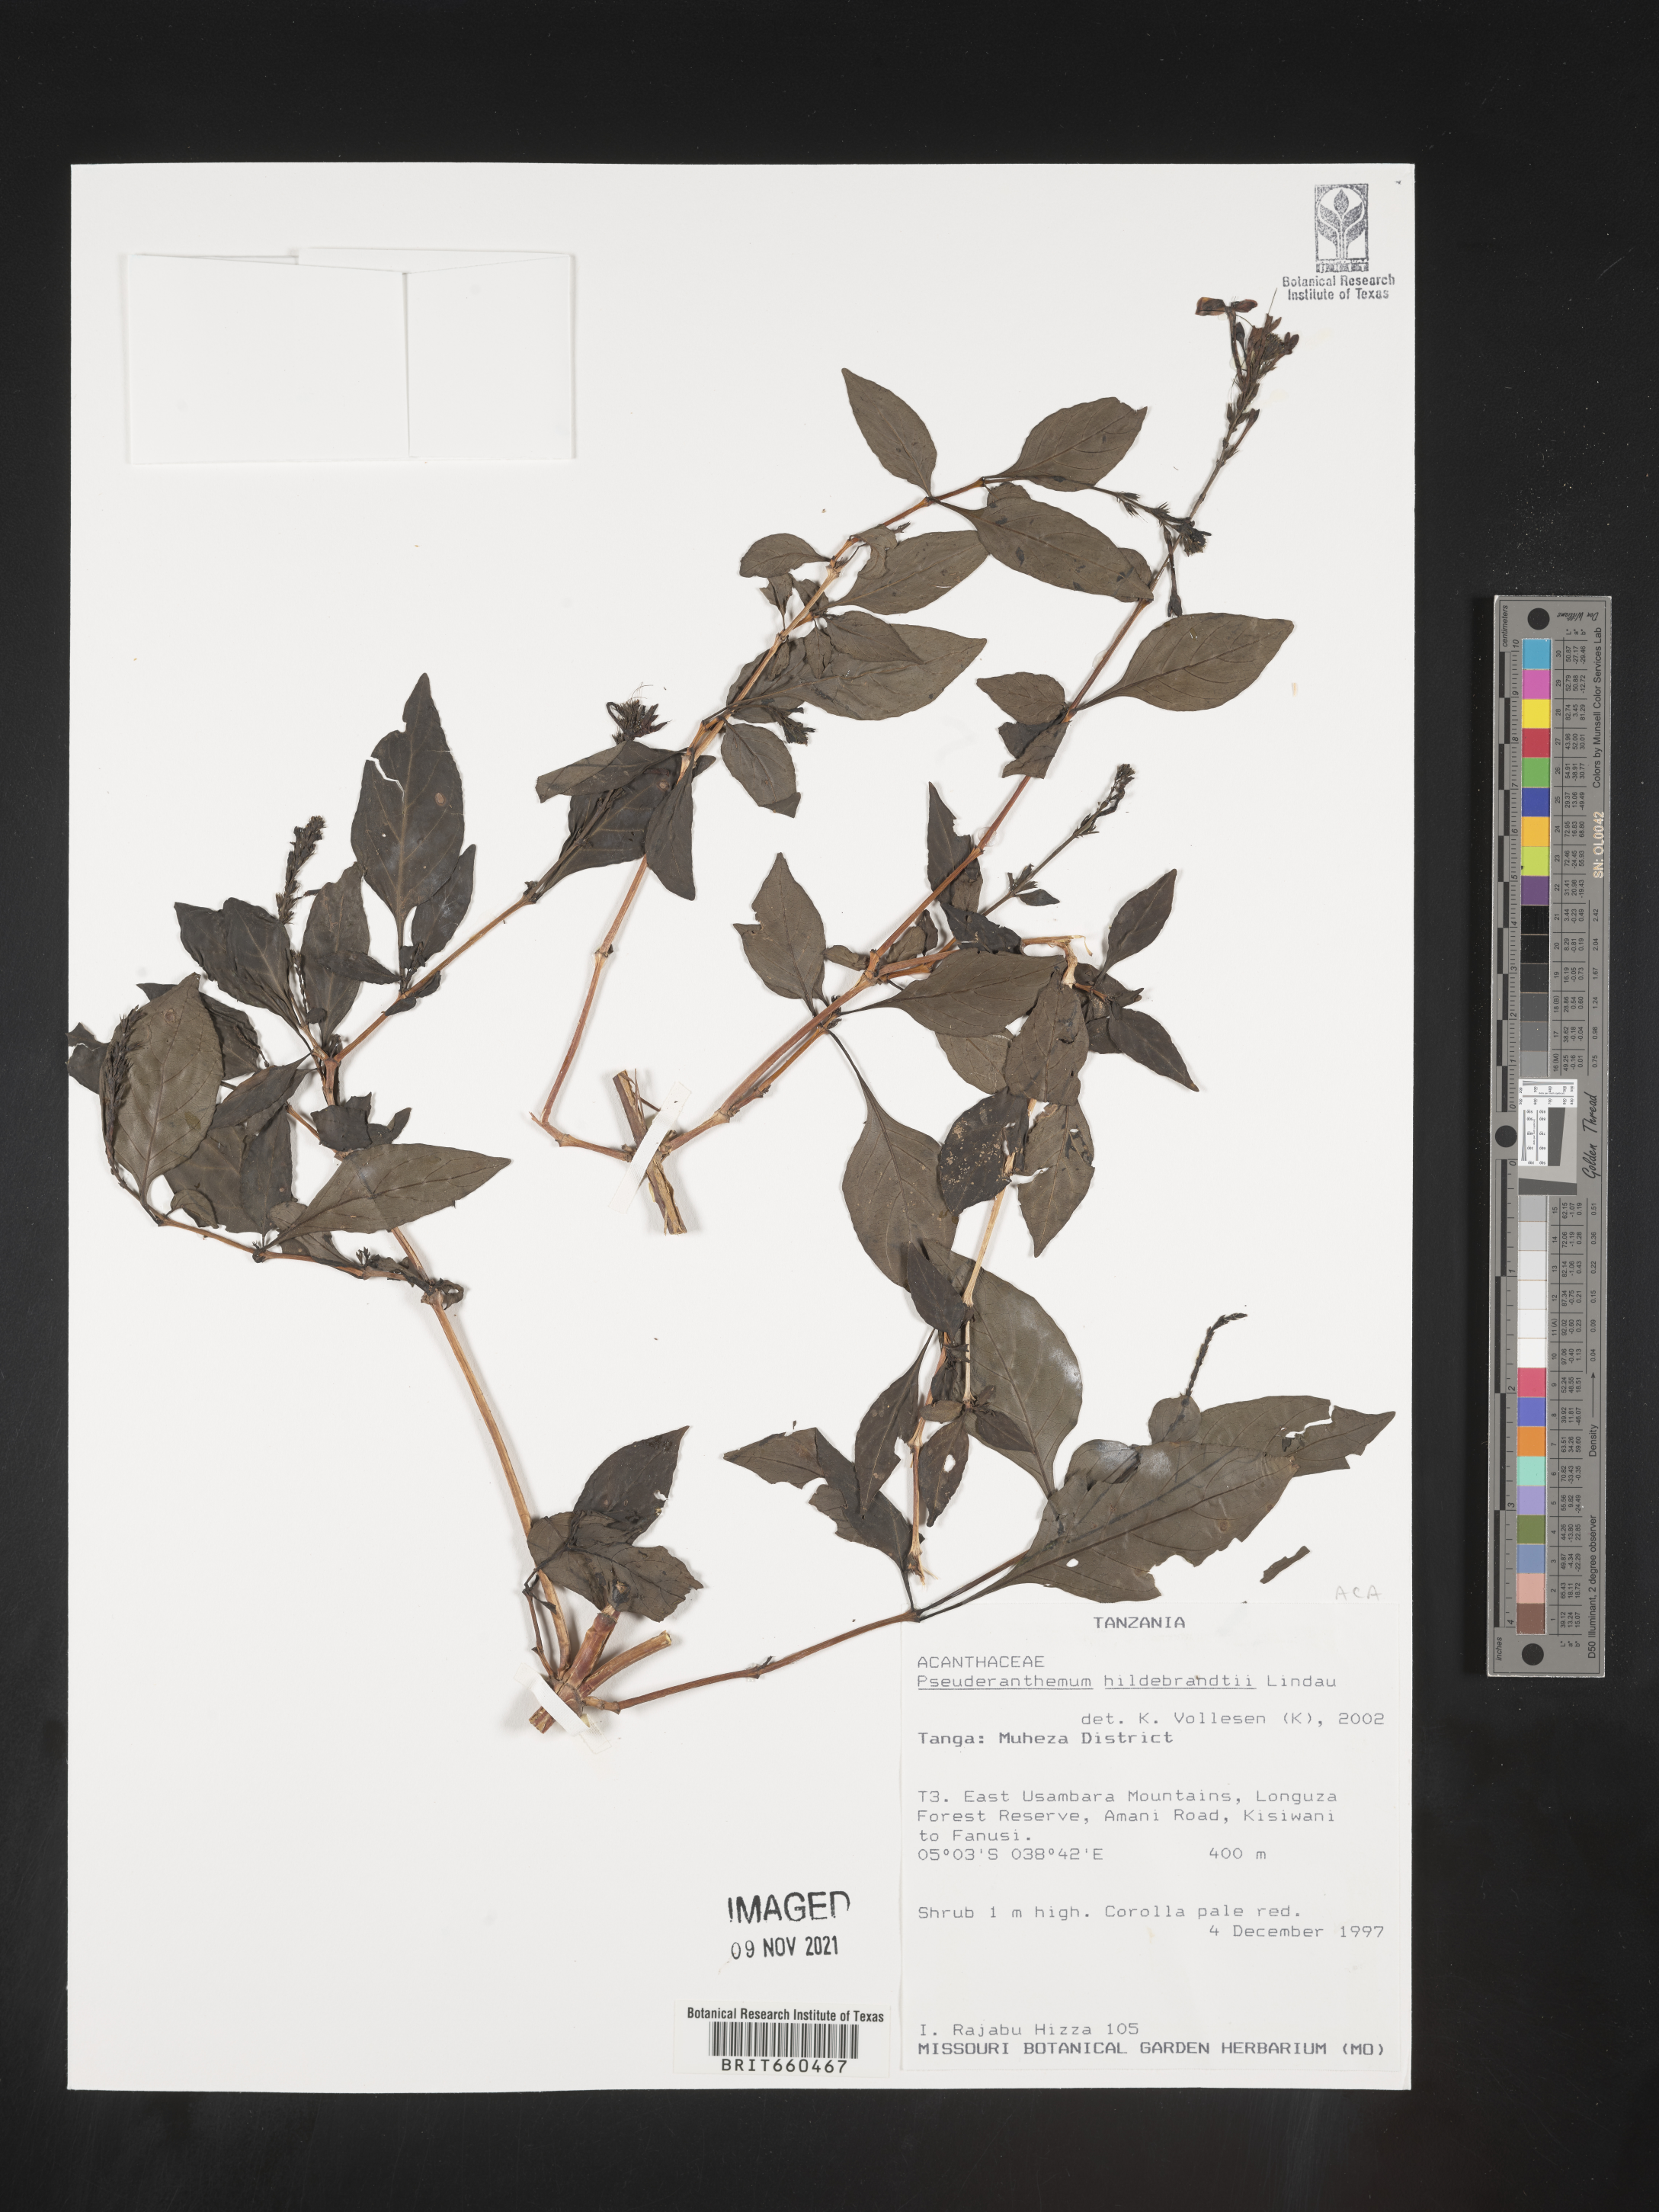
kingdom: Plantae
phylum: Tracheophyta
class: Magnoliopsida
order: Lamiales
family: Acanthaceae
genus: Pseuderanthemum
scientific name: Pseuderanthemum
